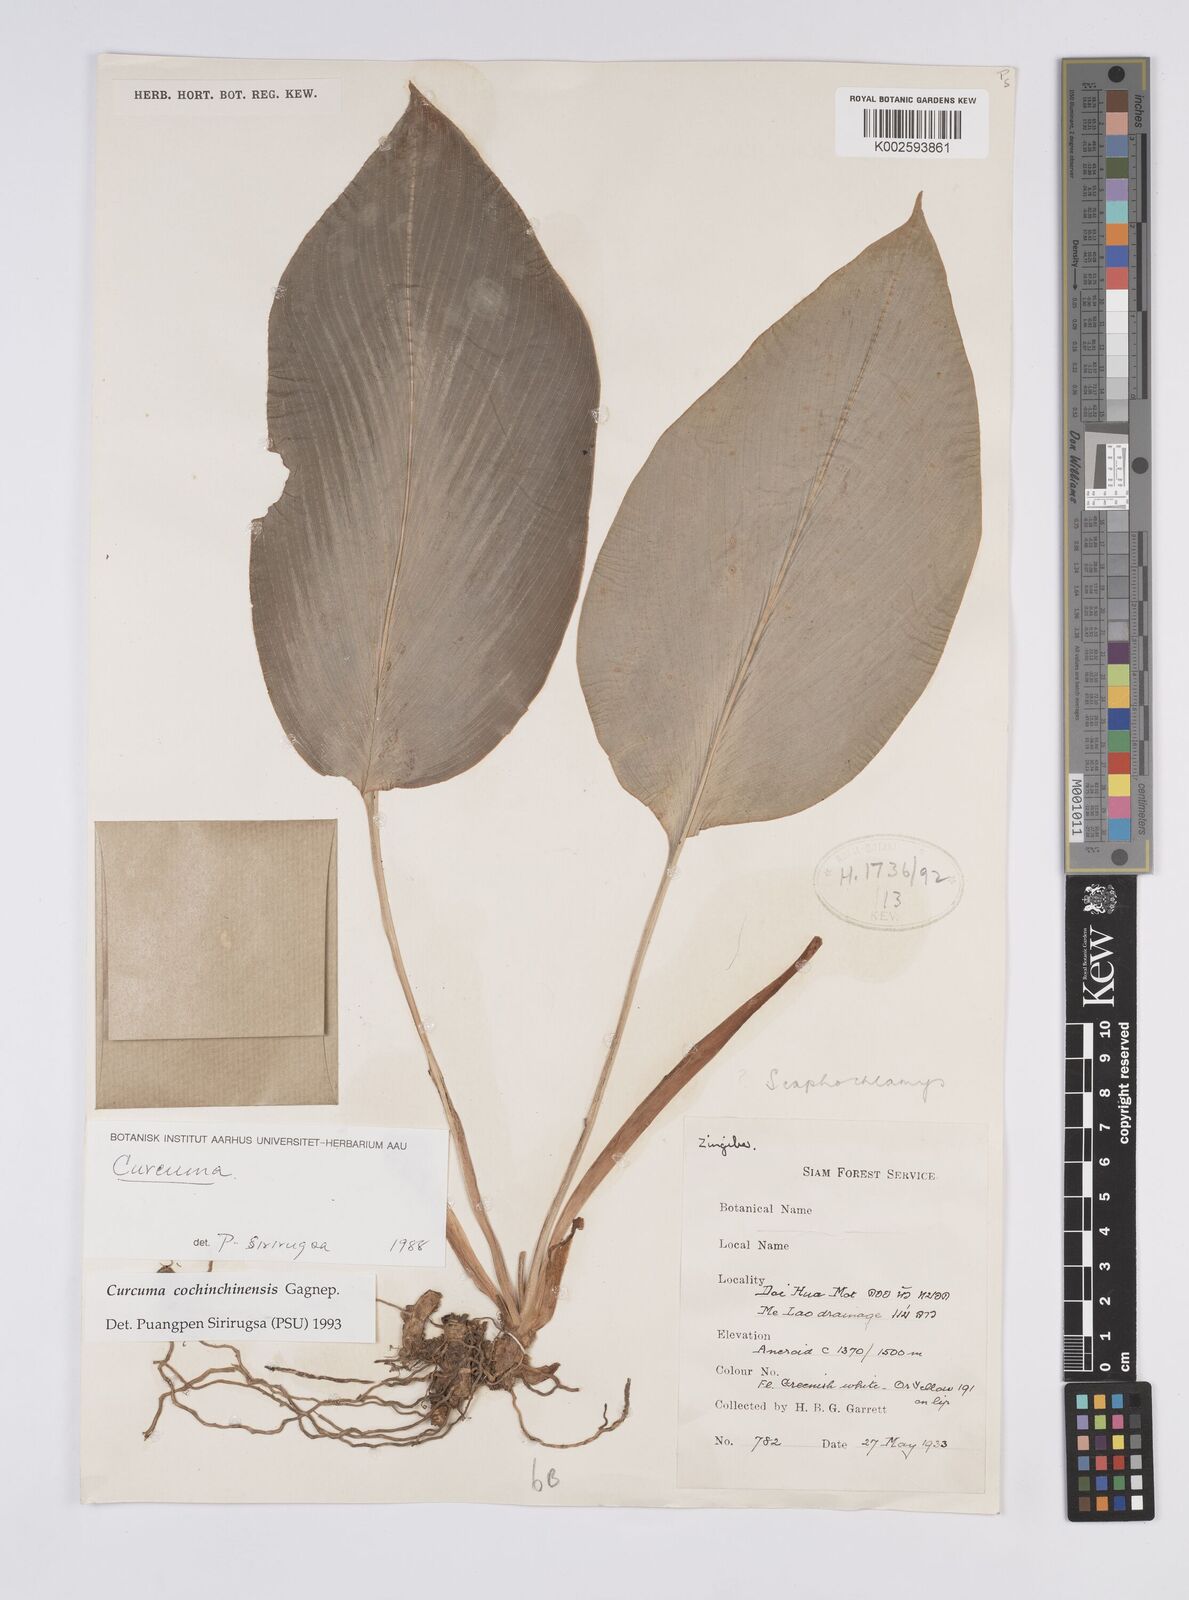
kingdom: Plantae
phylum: Tracheophyta
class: Liliopsida
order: Zingiberales
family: Zingiberaceae
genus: Curcuma
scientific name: Curcuma cochinchinensis
